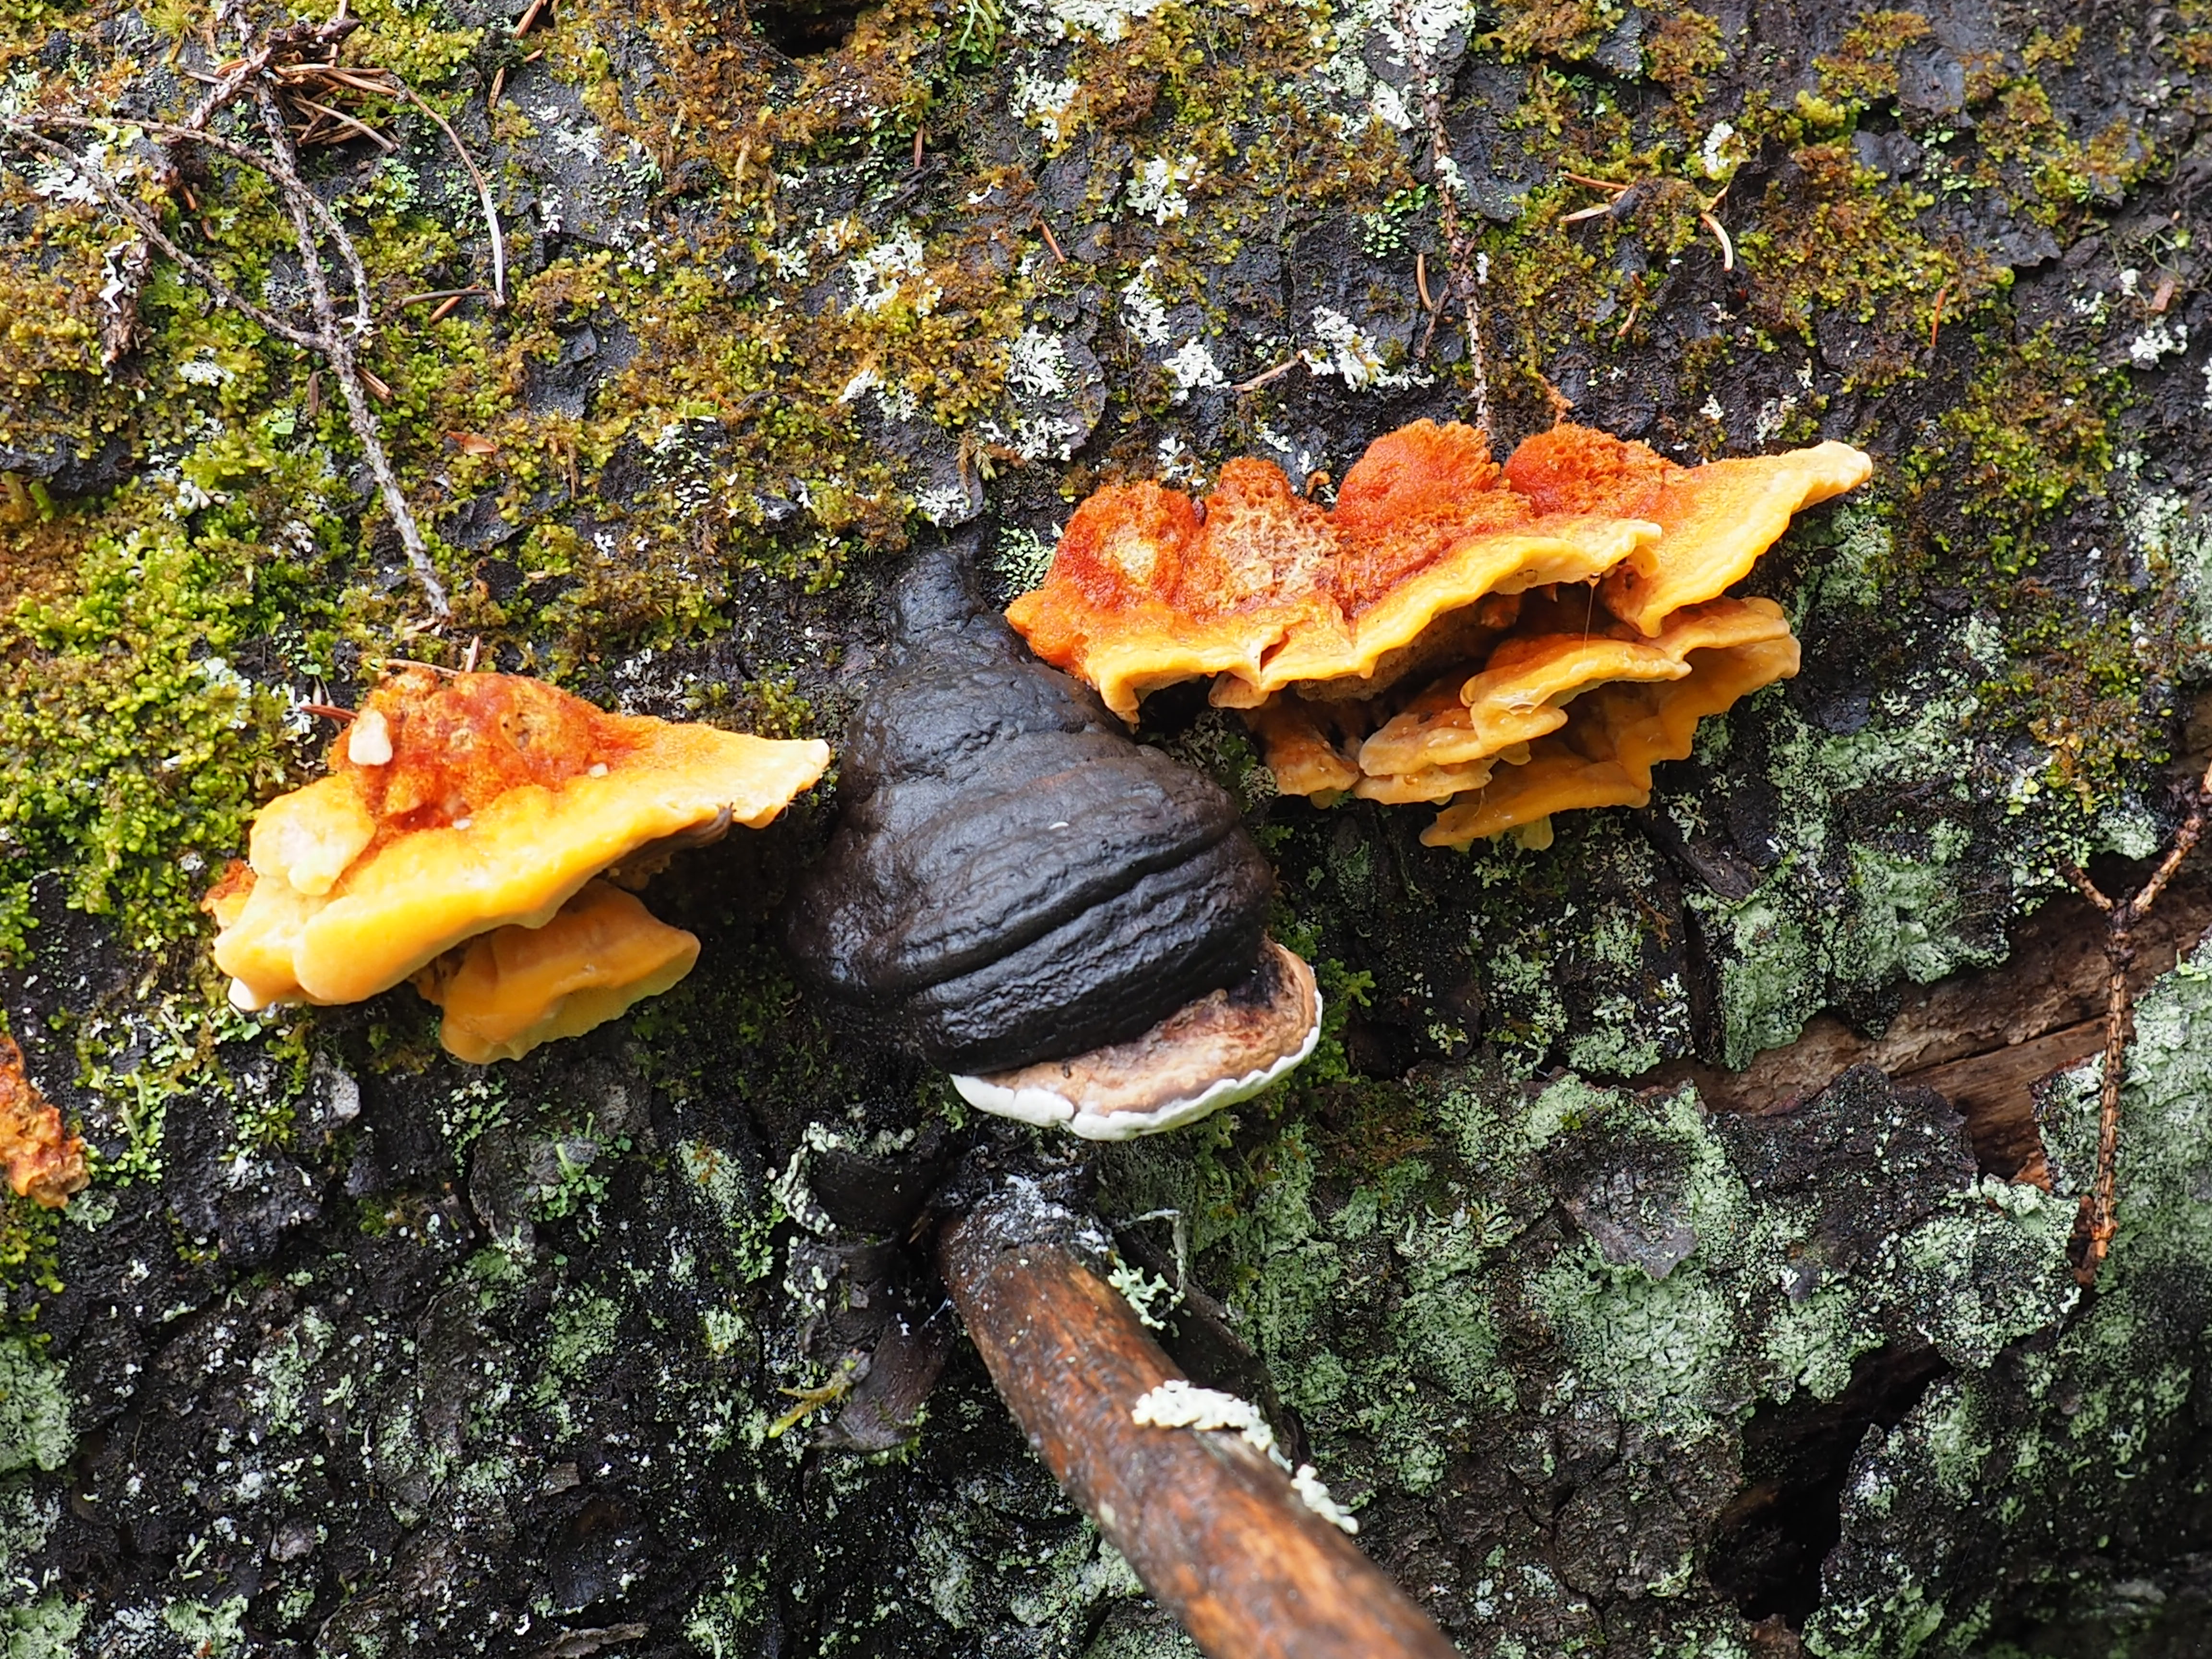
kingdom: Fungi
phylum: Basidiomycota
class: Agaricomycetes
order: Polyporales
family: Pycnoporellaceae
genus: Pycnoporellus
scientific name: Pycnoporellus fulgens
